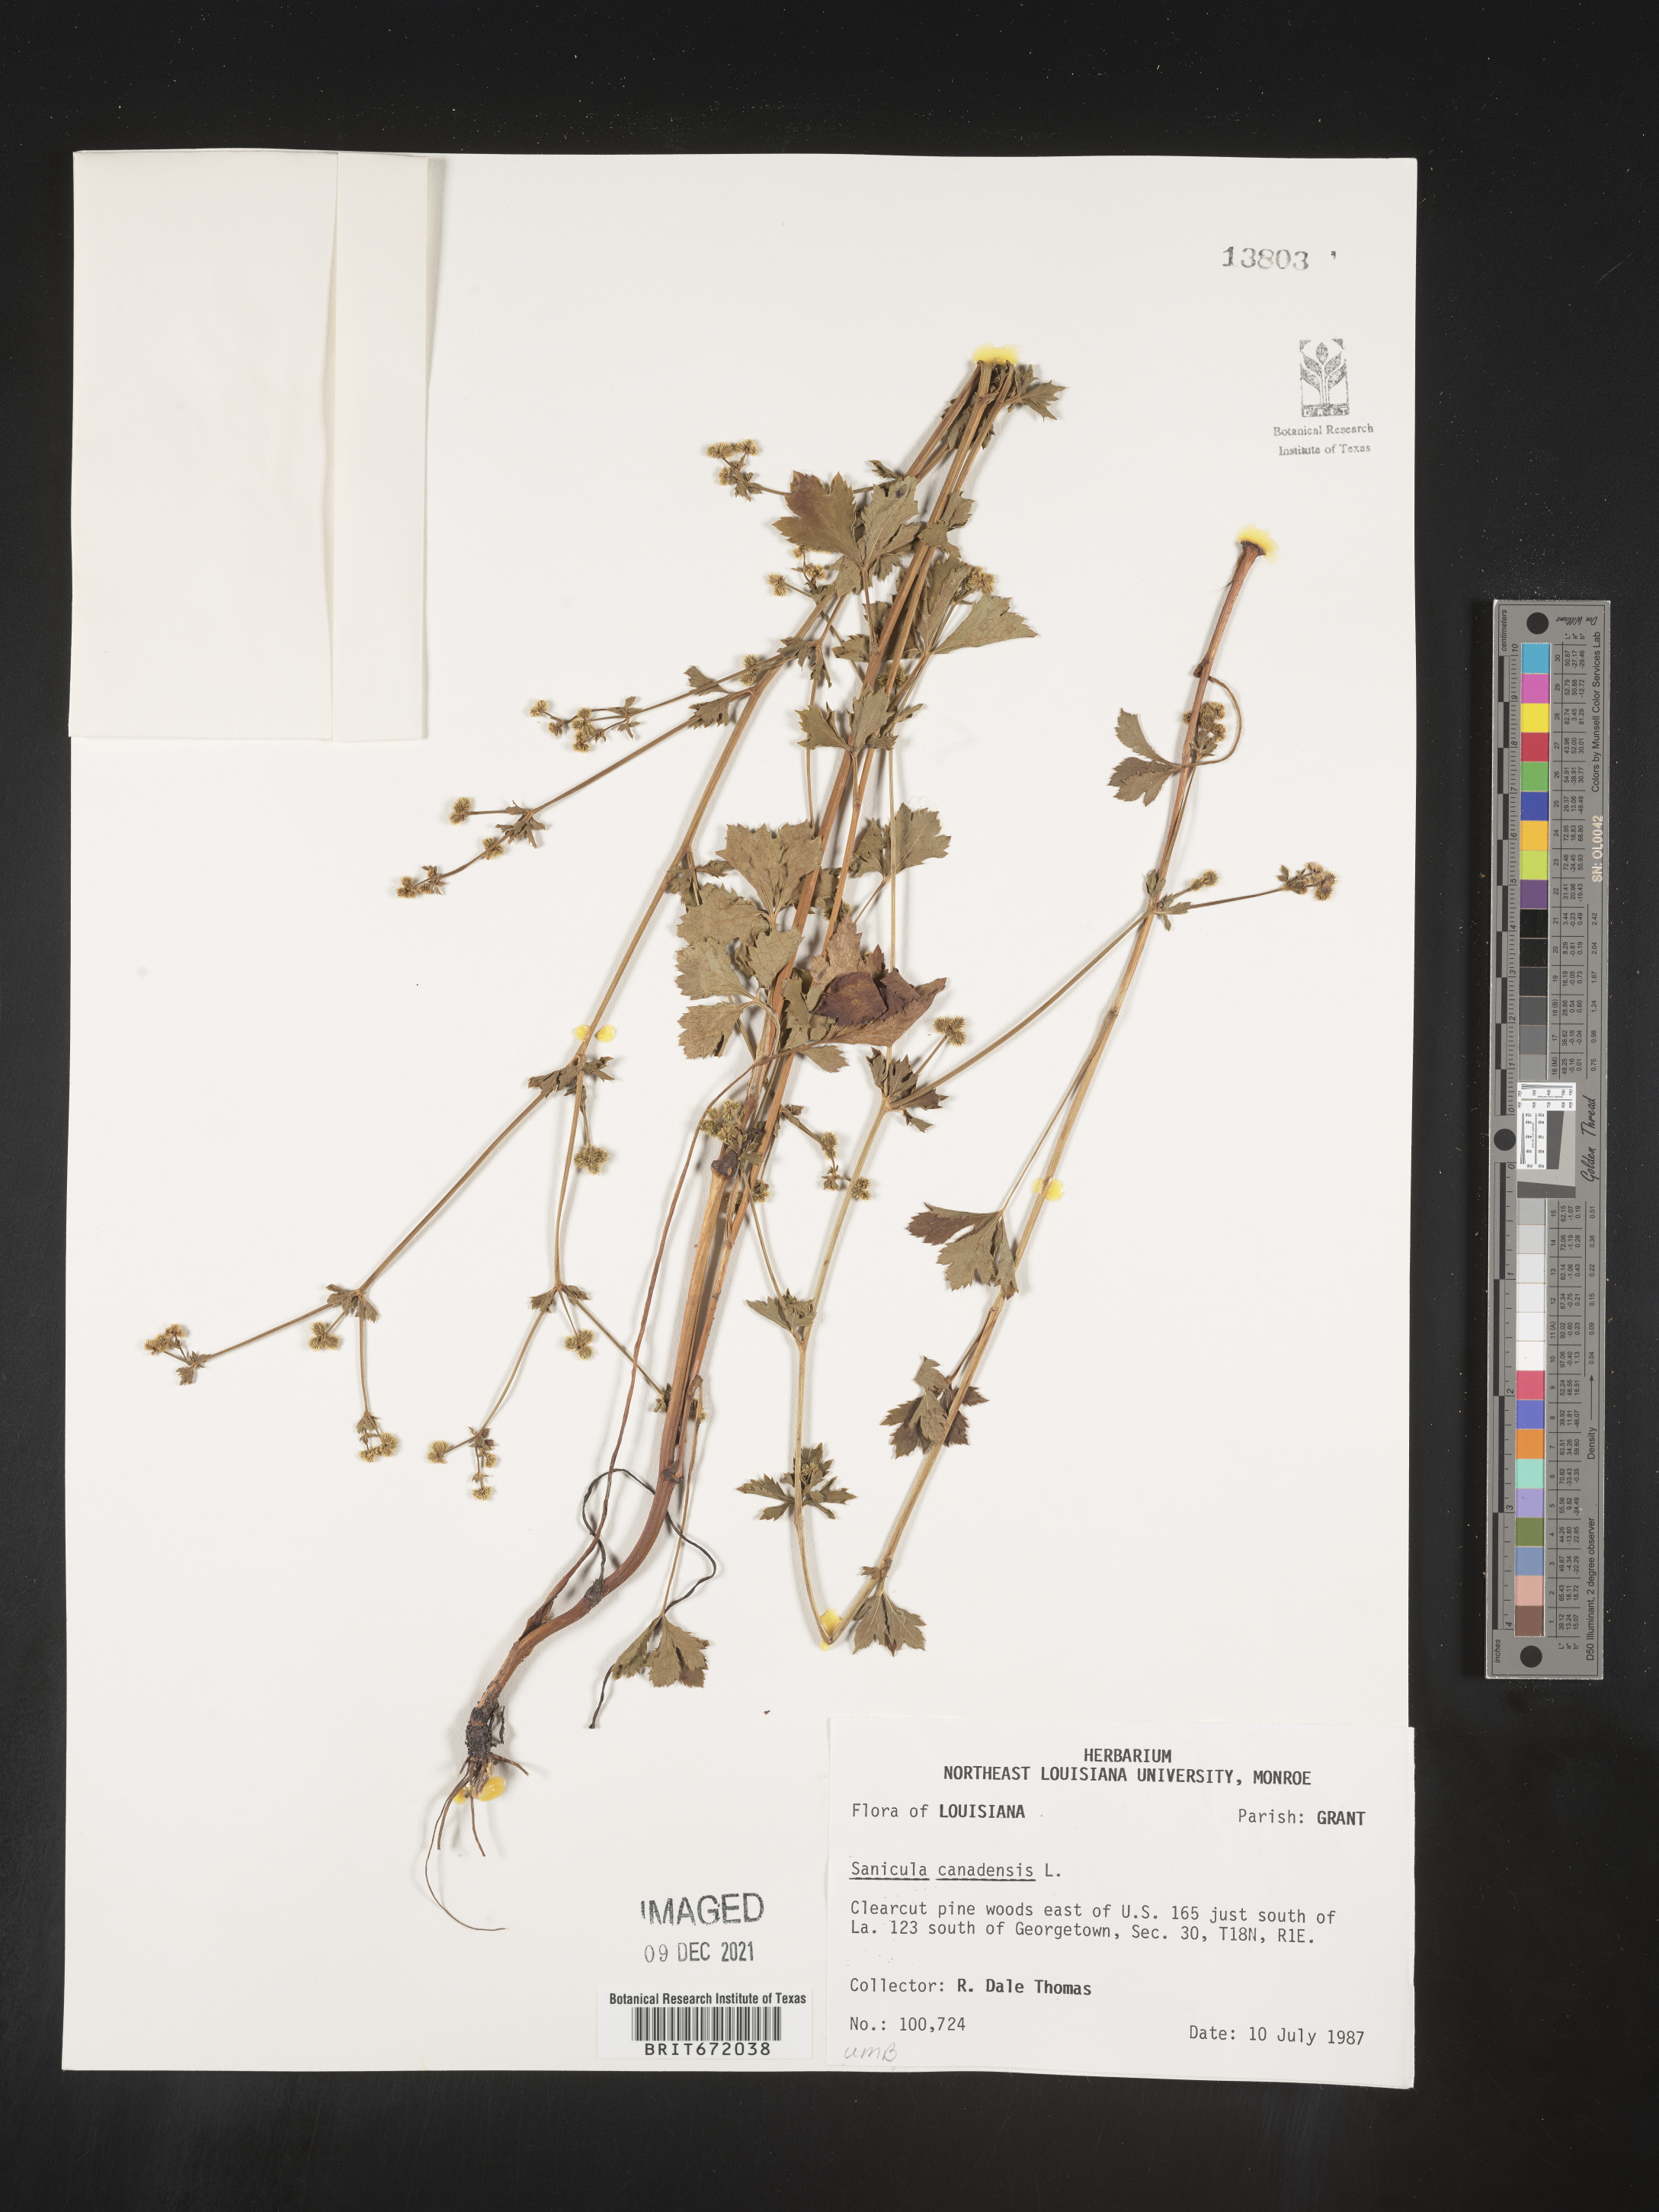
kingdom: Plantae
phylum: Tracheophyta
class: Magnoliopsida
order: Apiales
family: Apiaceae
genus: Sanicula
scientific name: Sanicula canadensis
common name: Canada sanicle
